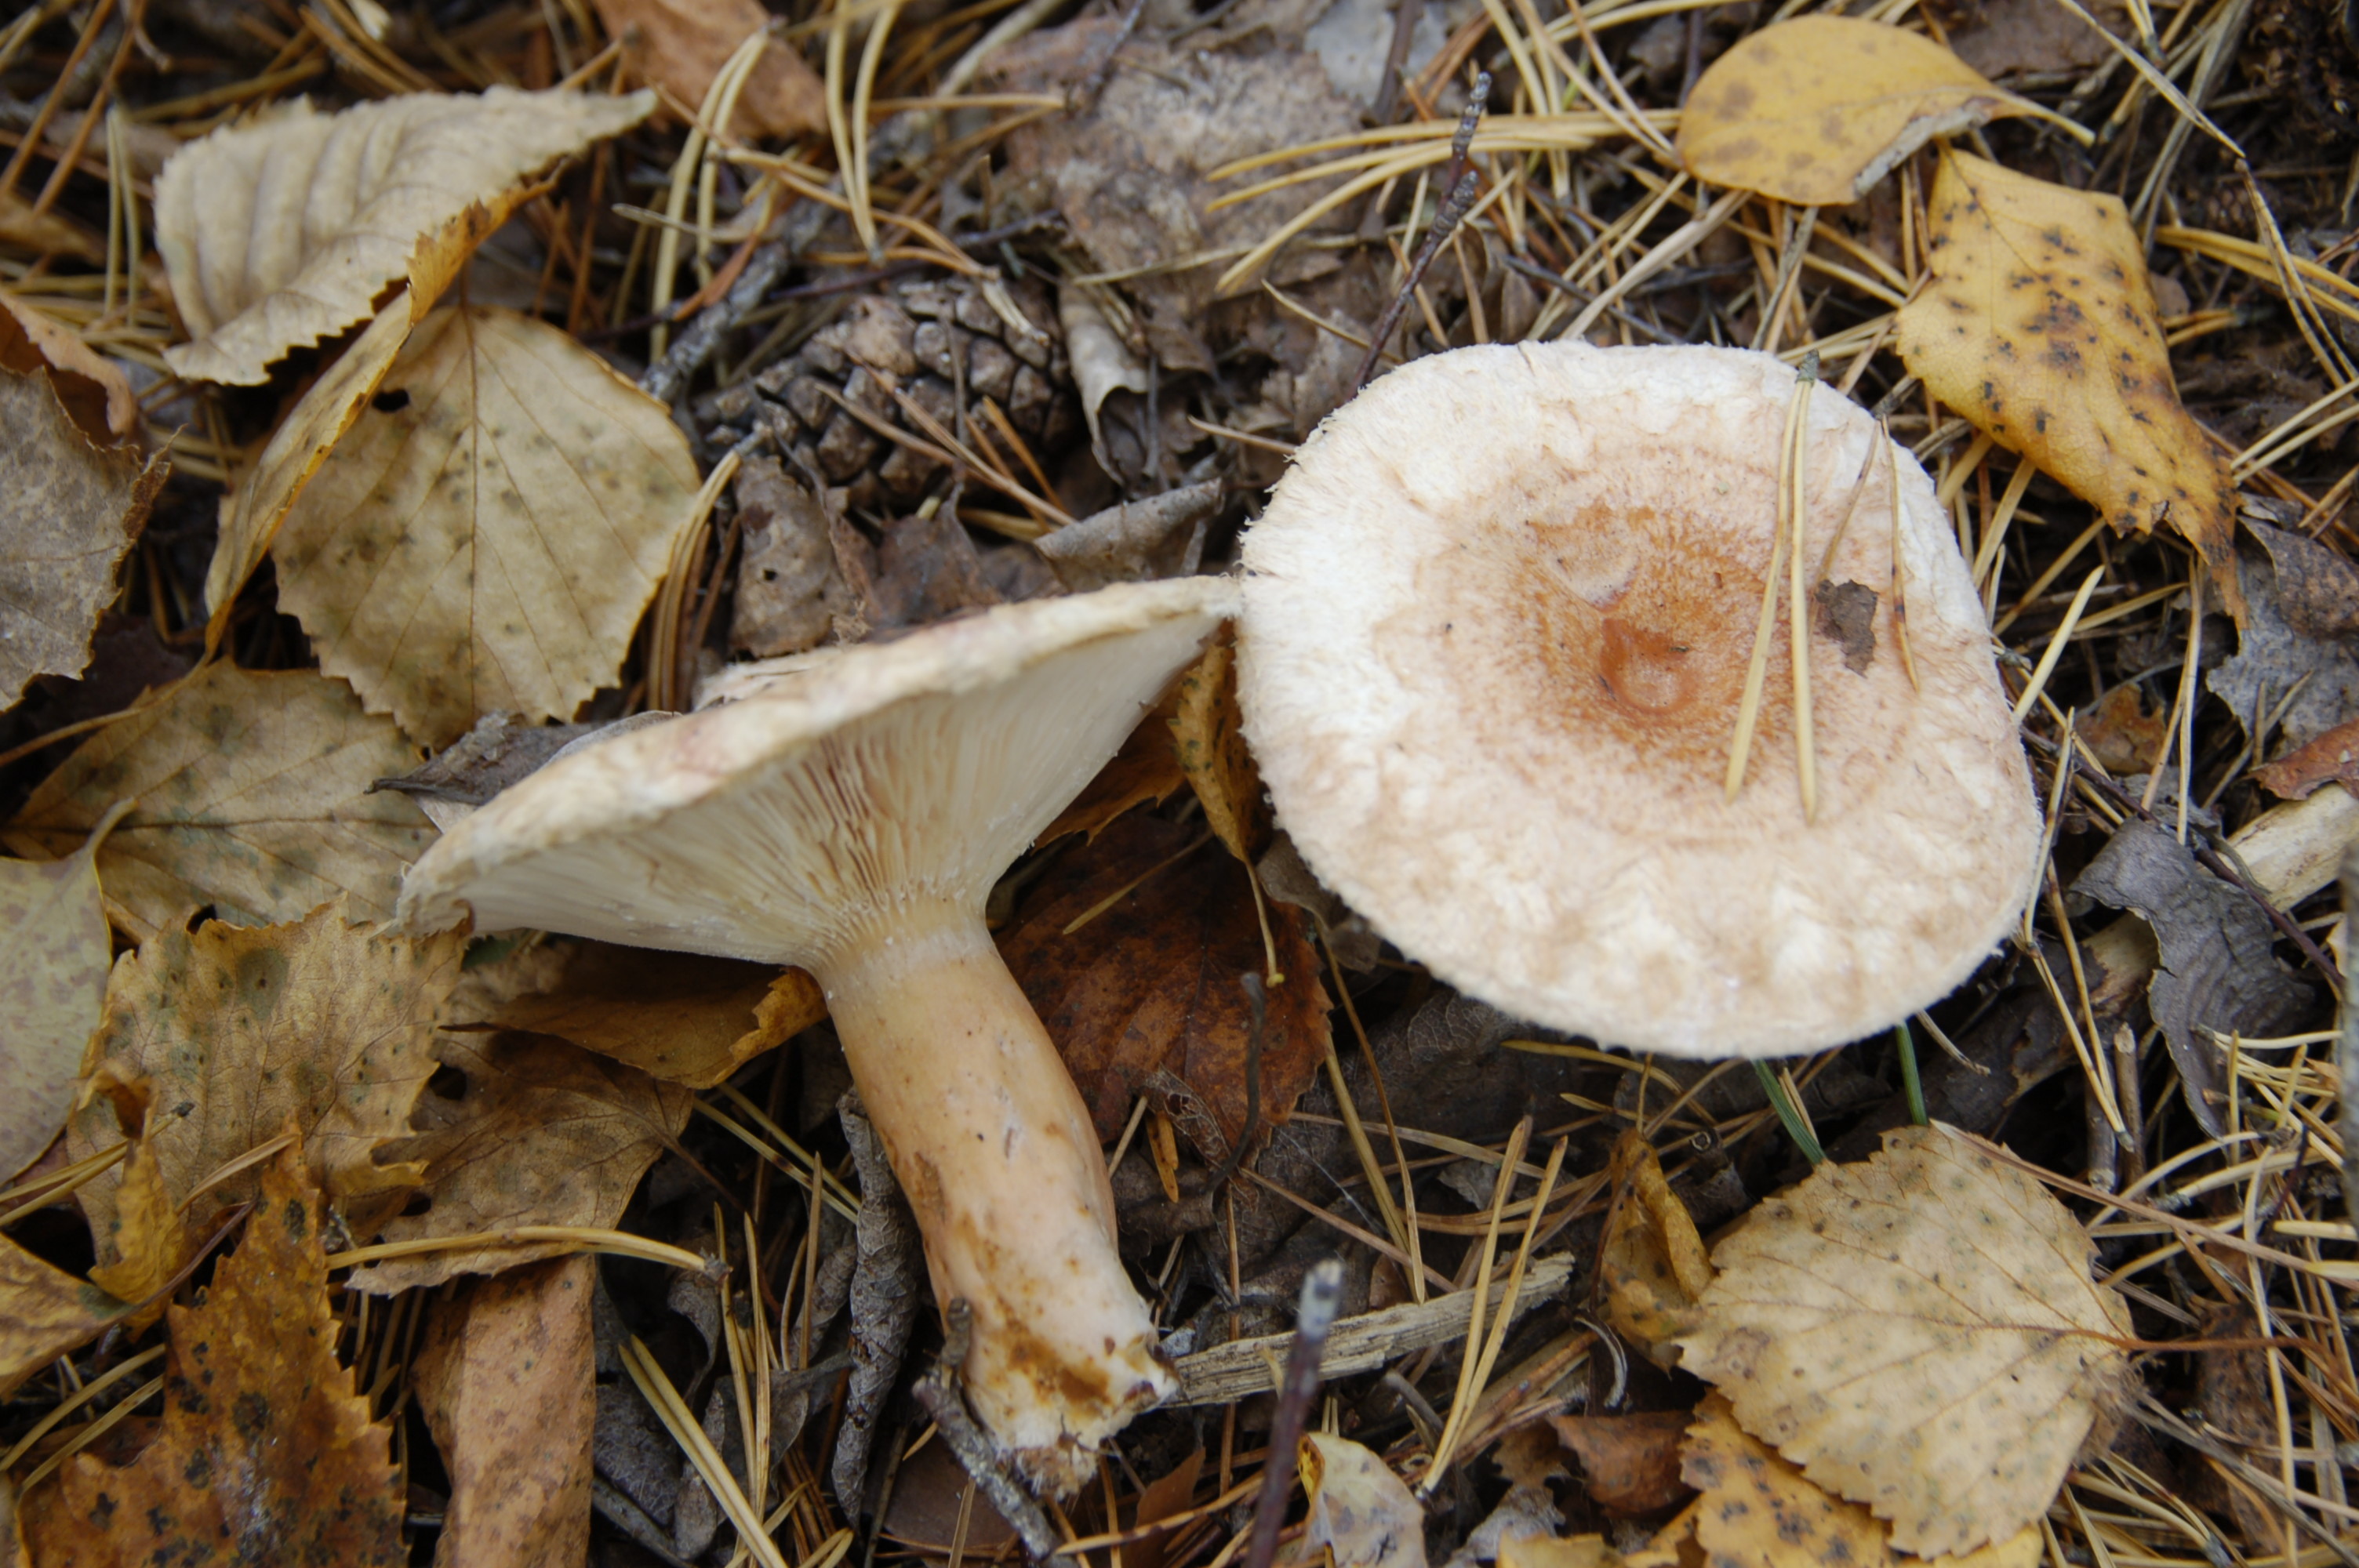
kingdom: Fungi
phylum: Basidiomycota
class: Agaricomycetes
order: Russulales
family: Russulaceae
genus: Lactarius
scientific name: Lactarius torminosus
